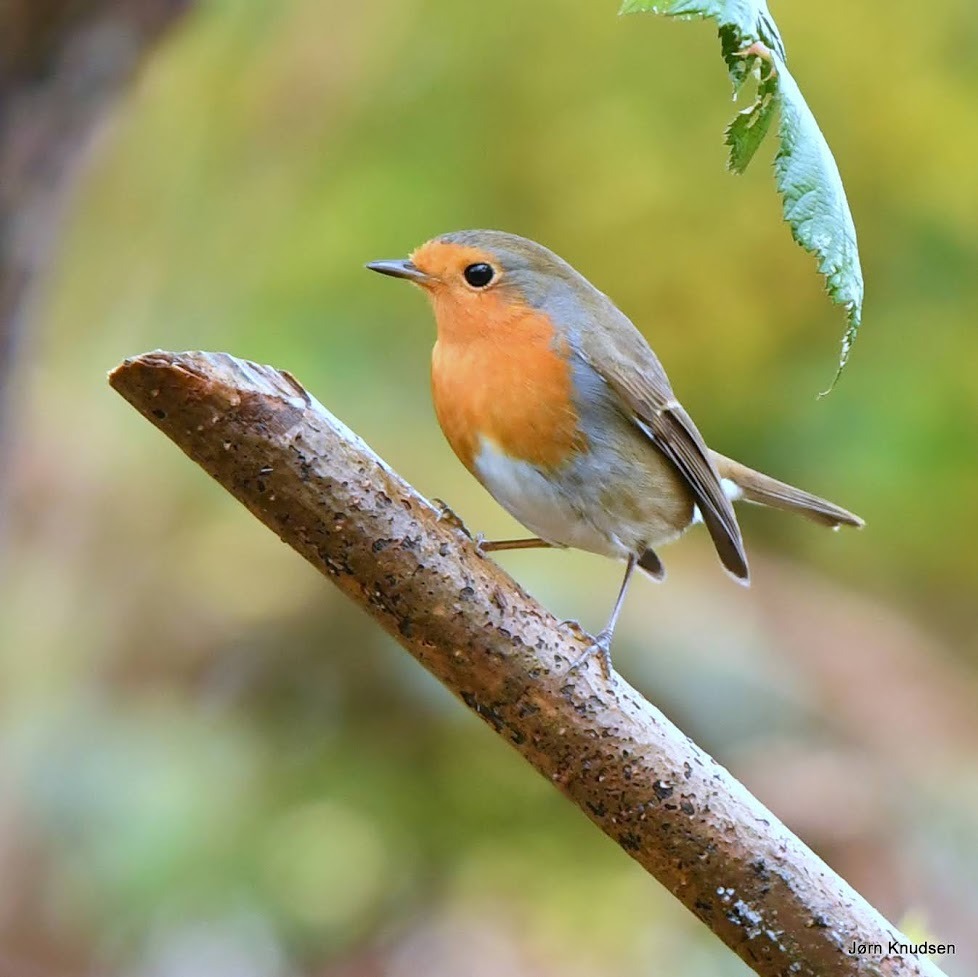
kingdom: Animalia
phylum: Chordata
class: Aves
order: Passeriformes
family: Muscicapidae
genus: Erithacus
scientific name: Erithacus rubecula
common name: Rødhals/rødkælk
